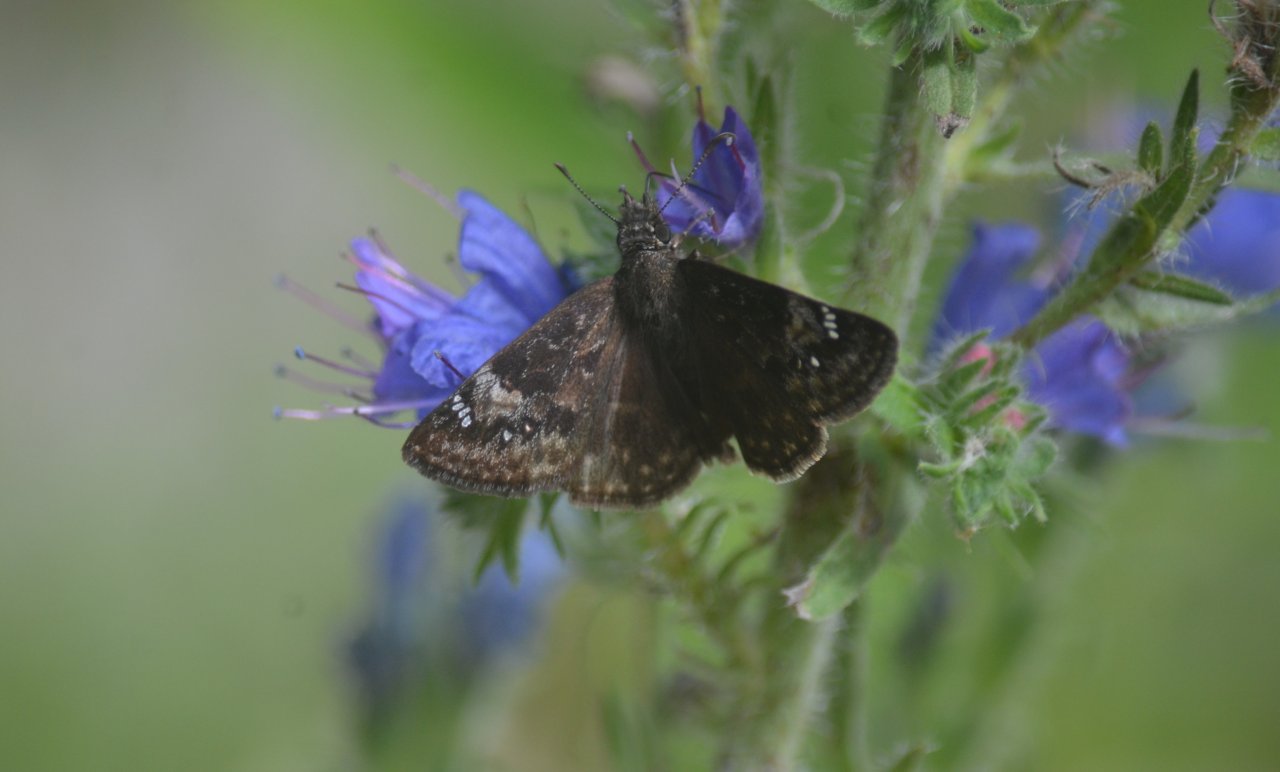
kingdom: Animalia
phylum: Arthropoda
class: Insecta
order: Lepidoptera
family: Hesperiidae
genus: Gesta
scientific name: Gesta
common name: Columbine Duskywing
